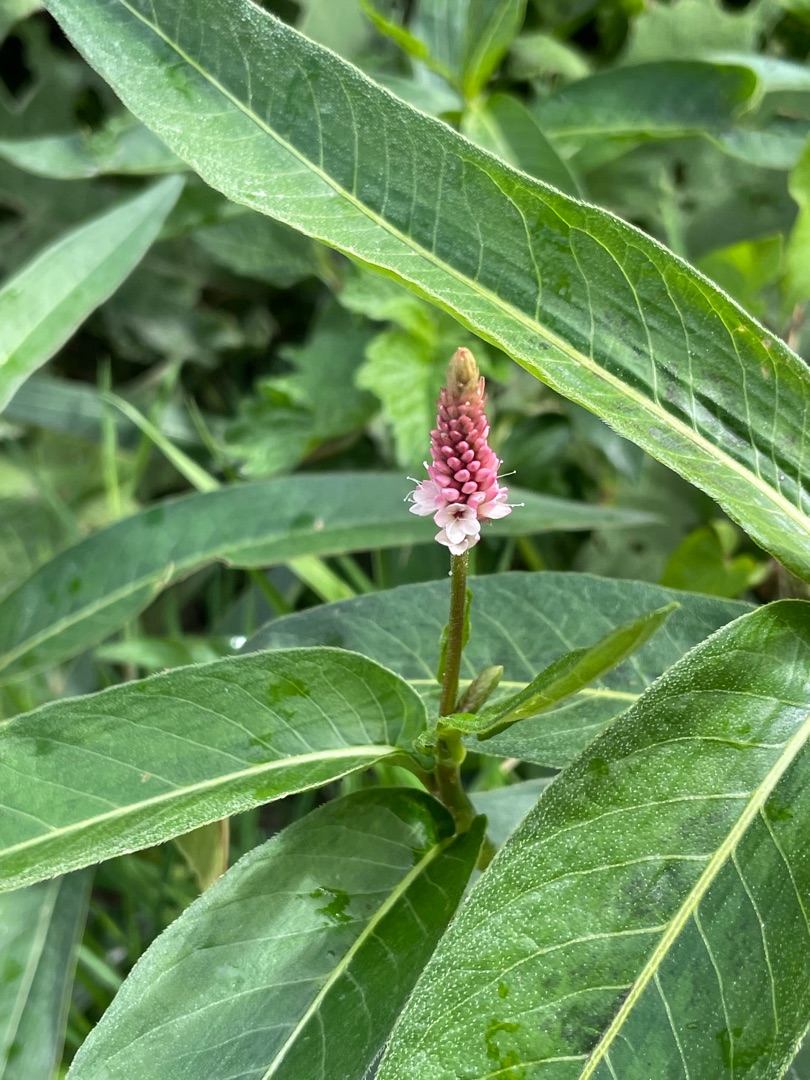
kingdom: Plantae
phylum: Tracheophyta
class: Magnoliopsida
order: Caryophyllales
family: Polygonaceae
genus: Persicaria
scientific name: Persicaria amphibia
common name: Vand-pileurt
